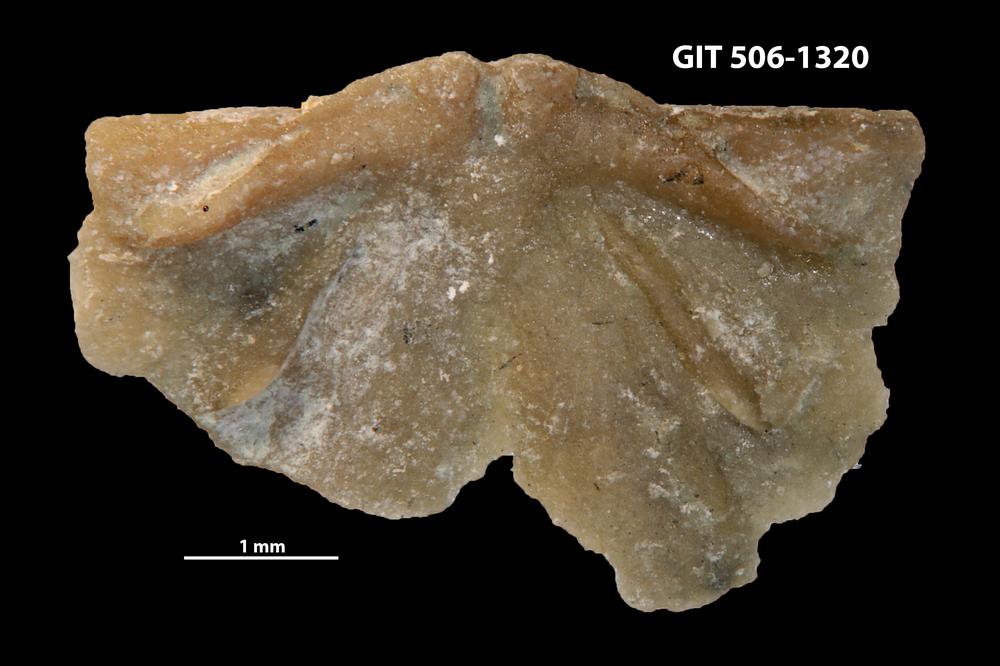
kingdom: Animalia
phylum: Brachiopoda
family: Strophomenidae
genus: Katastrophomena
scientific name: Katastrophomena woodlandensis
